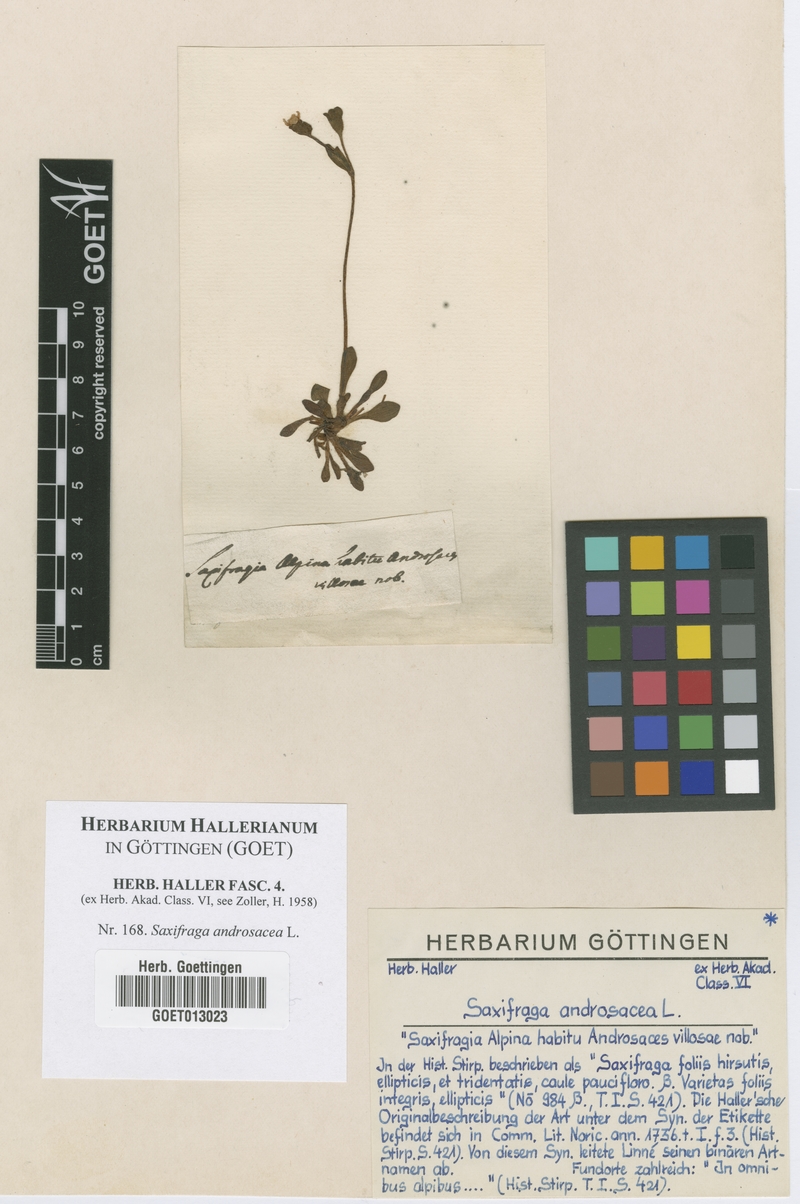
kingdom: Plantae
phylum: Tracheophyta
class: Magnoliopsida
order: Saxifragales
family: Saxifragaceae
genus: Saxifraga
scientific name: Saxifraga androsacea
